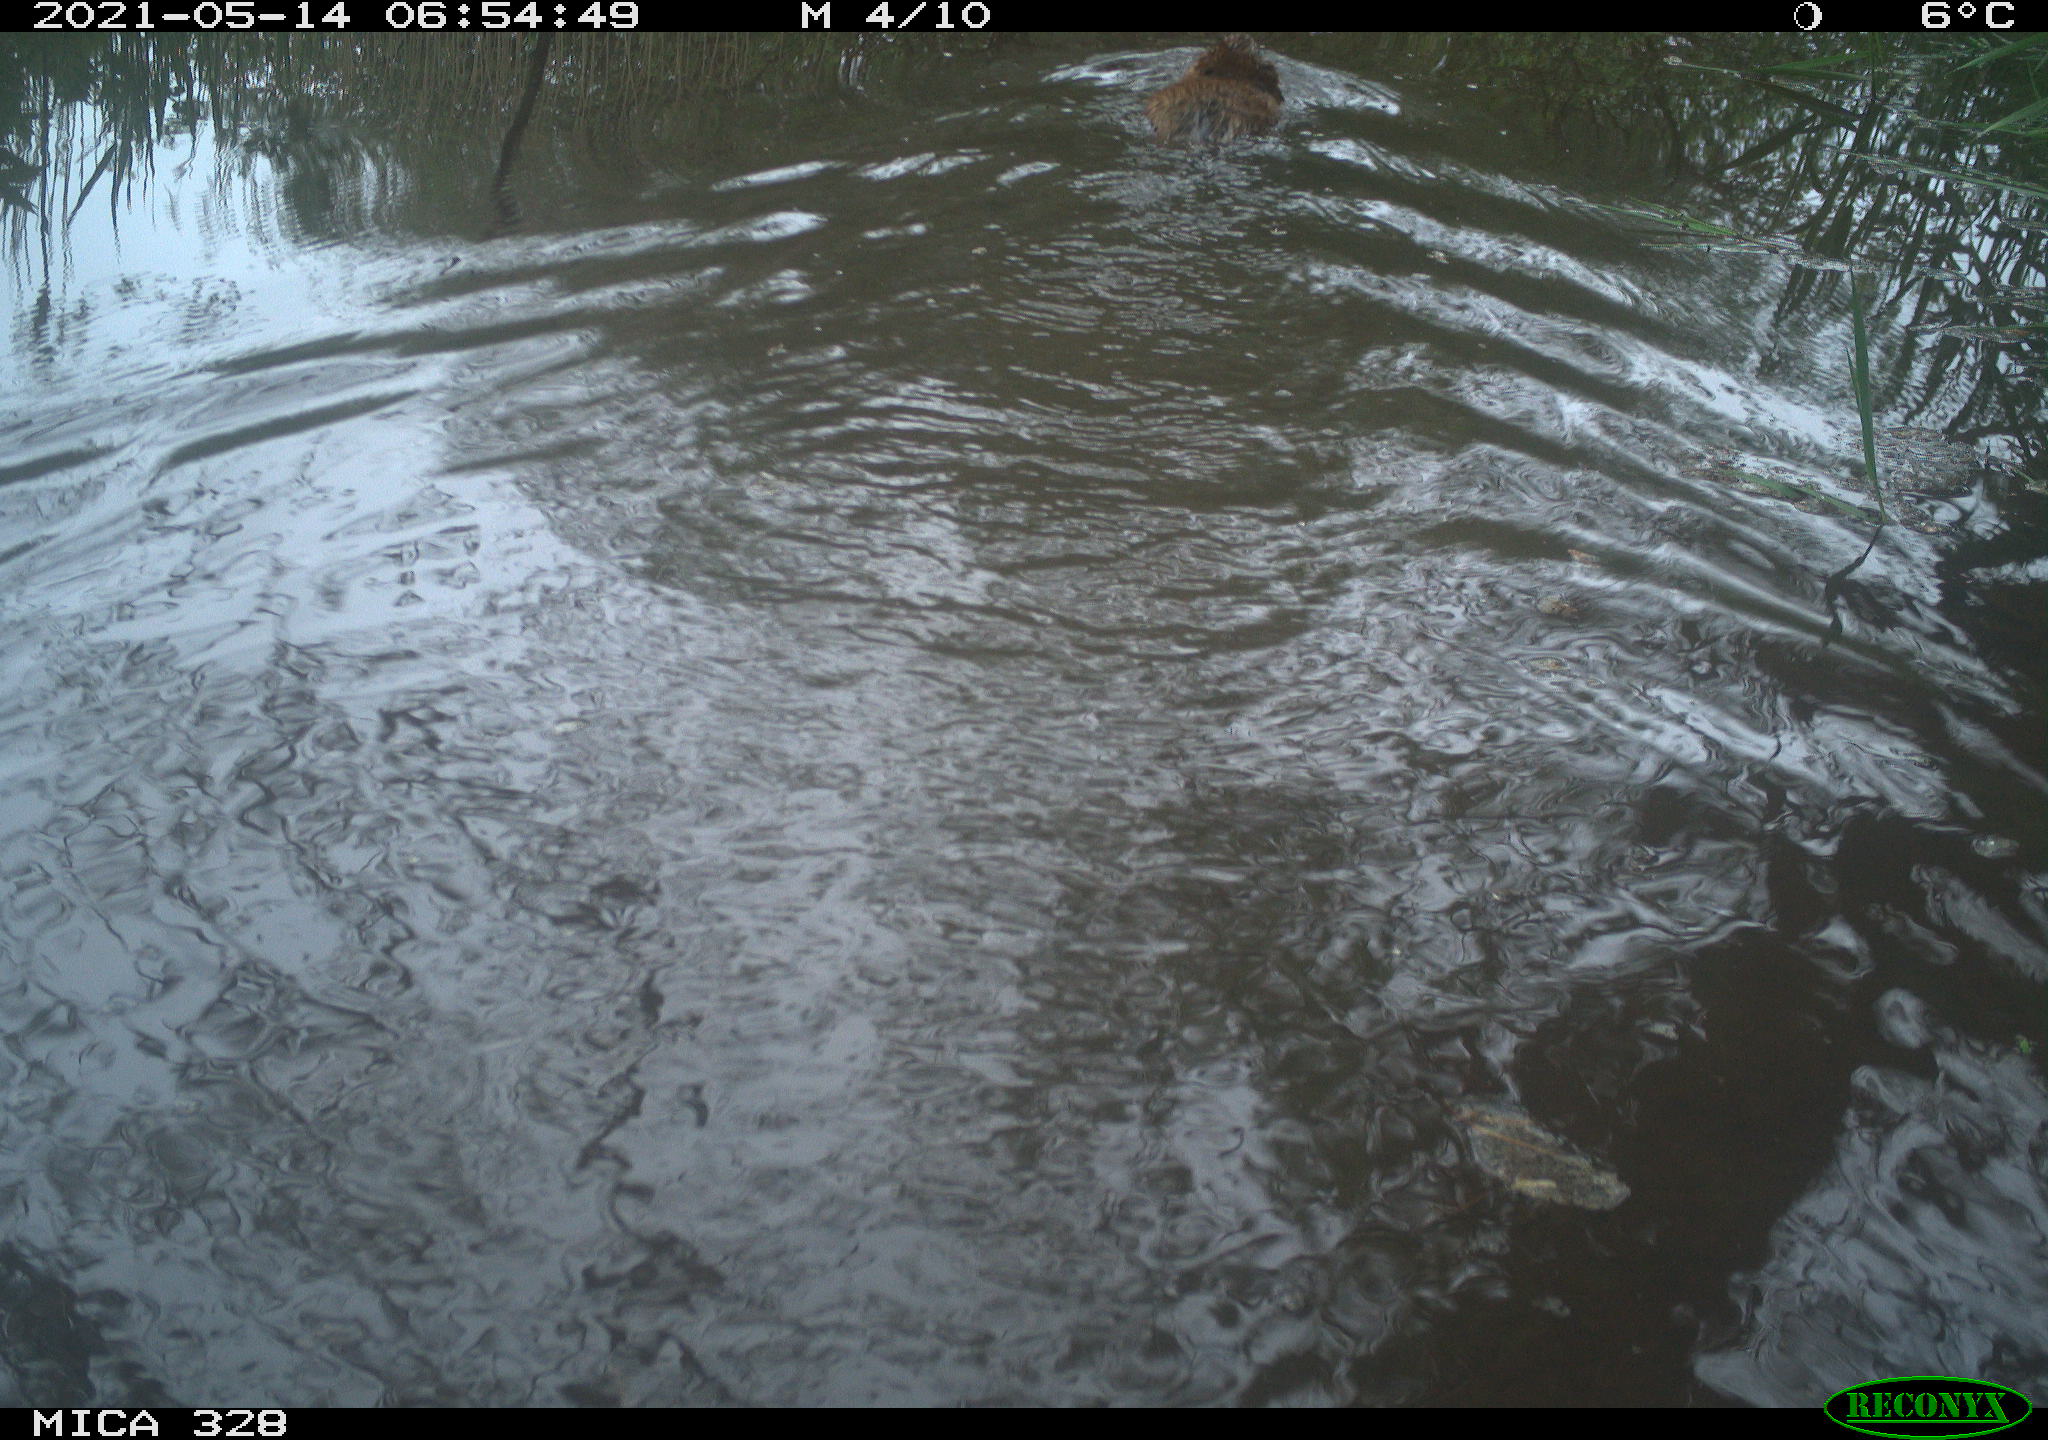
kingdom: Animalia
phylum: Chordata
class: Mammalia
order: Rodentia
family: Cricetidae
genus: Ondatra
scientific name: Ondatra zibethicus
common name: Muskrat
